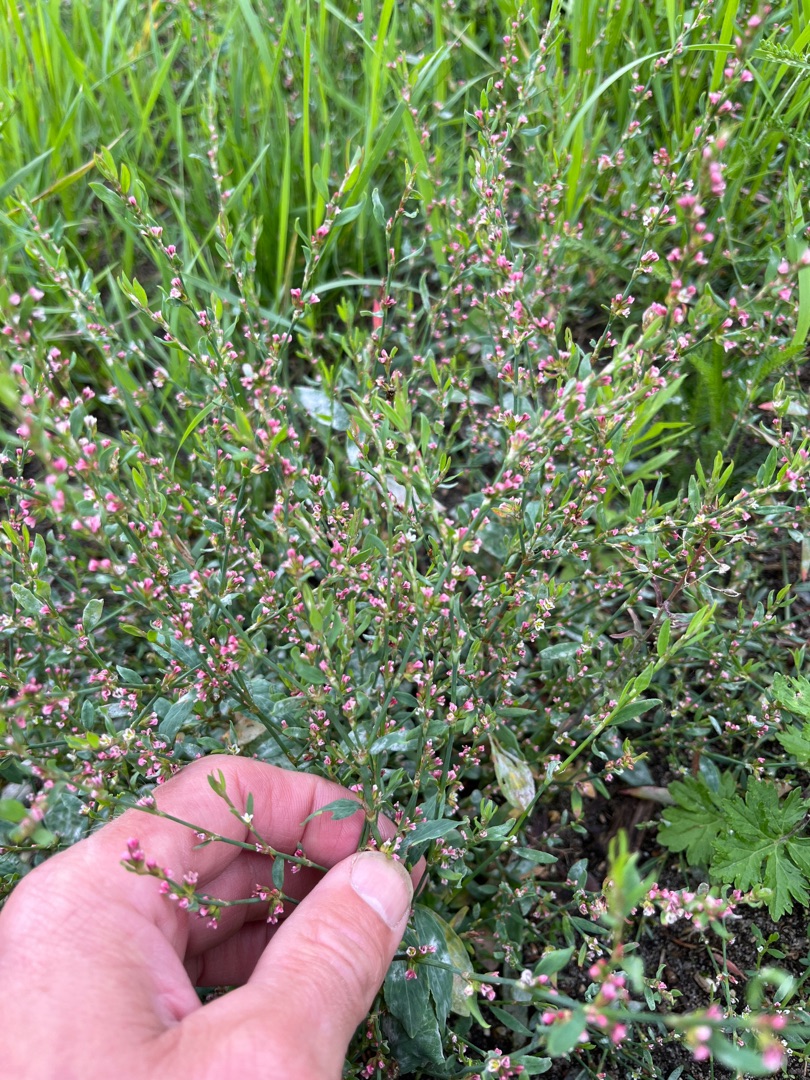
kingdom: Plantae
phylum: Tracheophyta
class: Magnoliopsida
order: Caryophyllales
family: Polygonaceae
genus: Polygonum
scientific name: Polygonum aviculare
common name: Vej-pileurt
